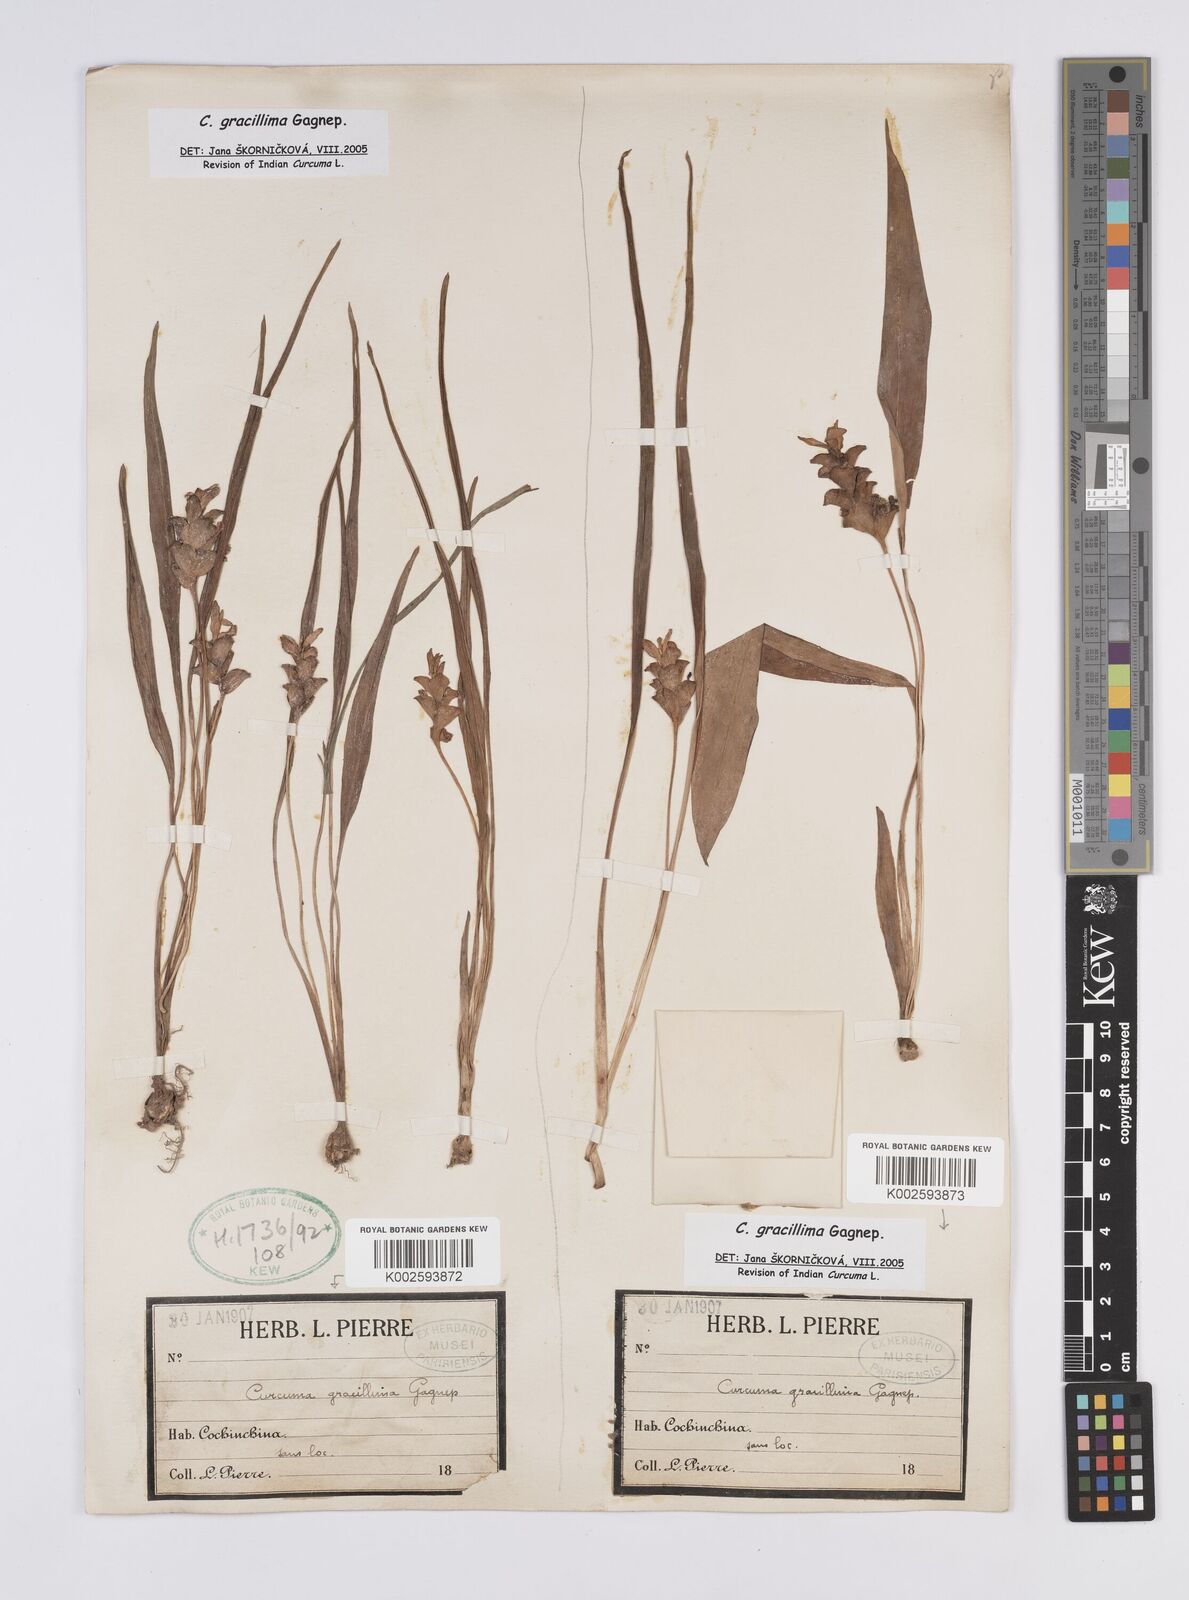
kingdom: Plantae
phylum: Tracheophyta
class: Liliopsida
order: Zingiberales
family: Zingiberaceae
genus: Curcuma
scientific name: Curcuma gracillima
